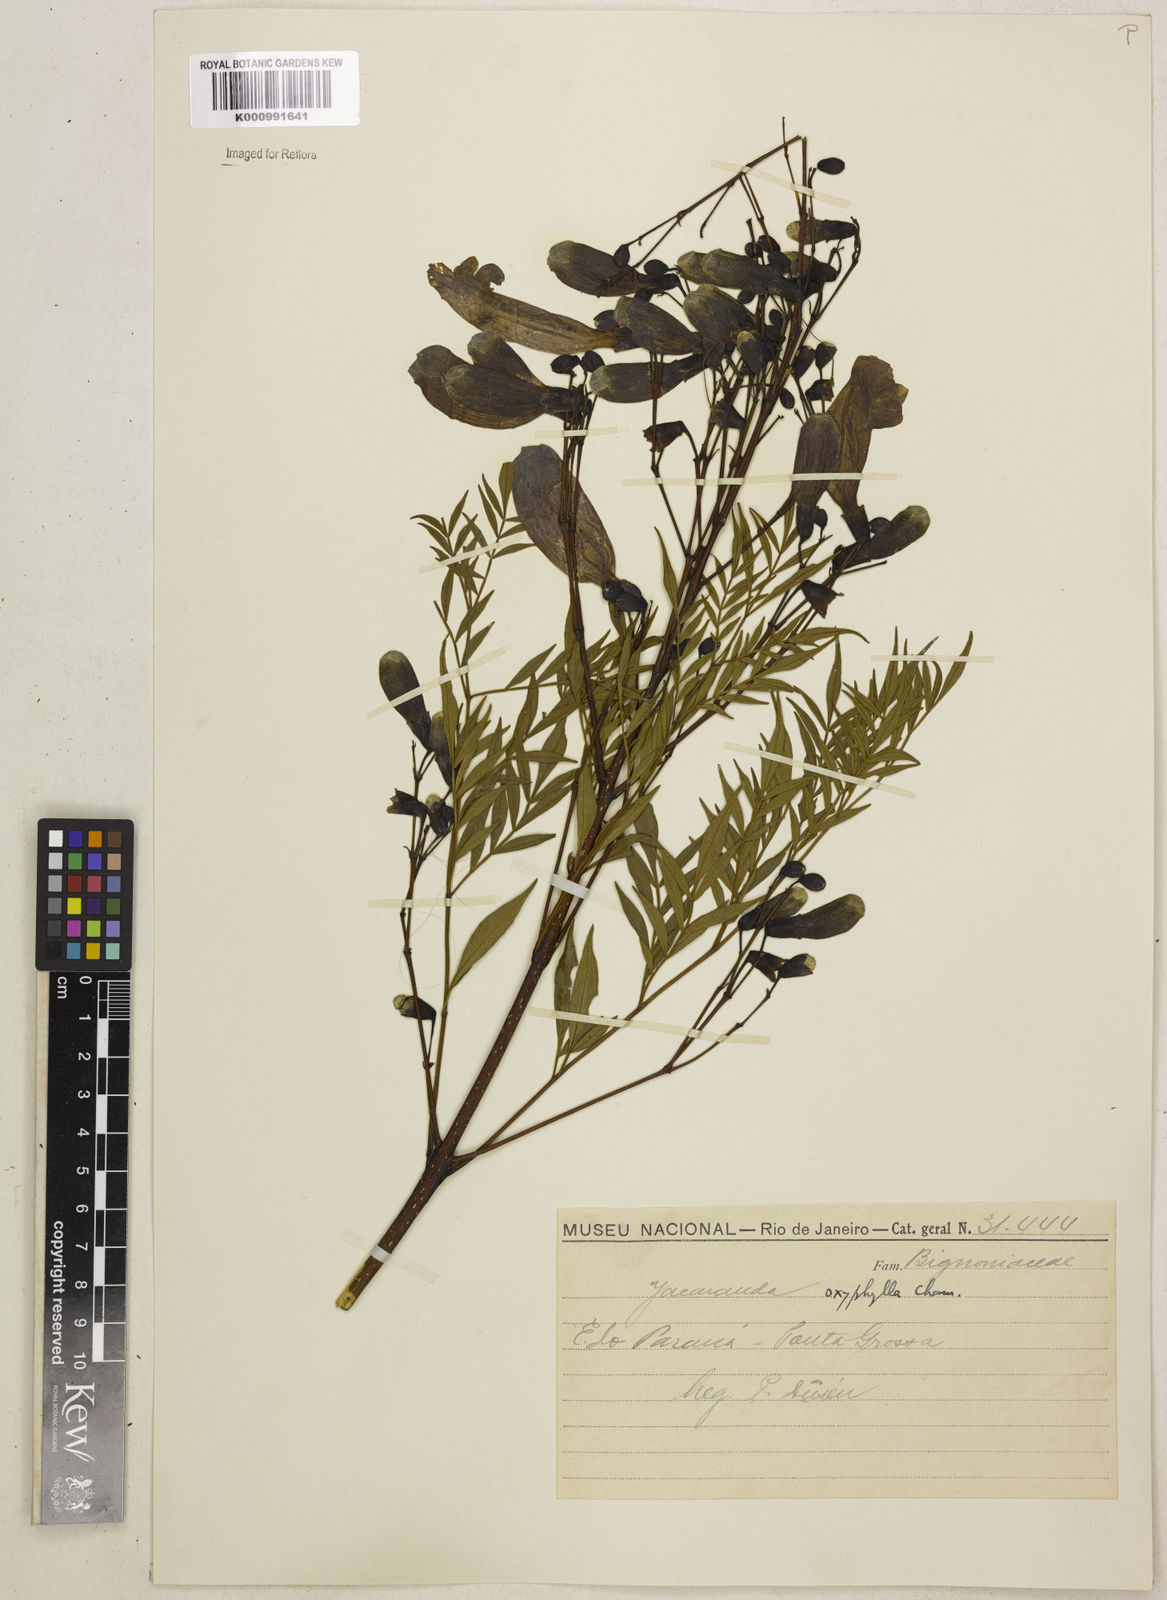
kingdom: Plantae
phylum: Tracheophyta
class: Magnoliopsida
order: Lamiales
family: Bignoniaceae
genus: Jacaranda
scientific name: Jacaranda caroba
